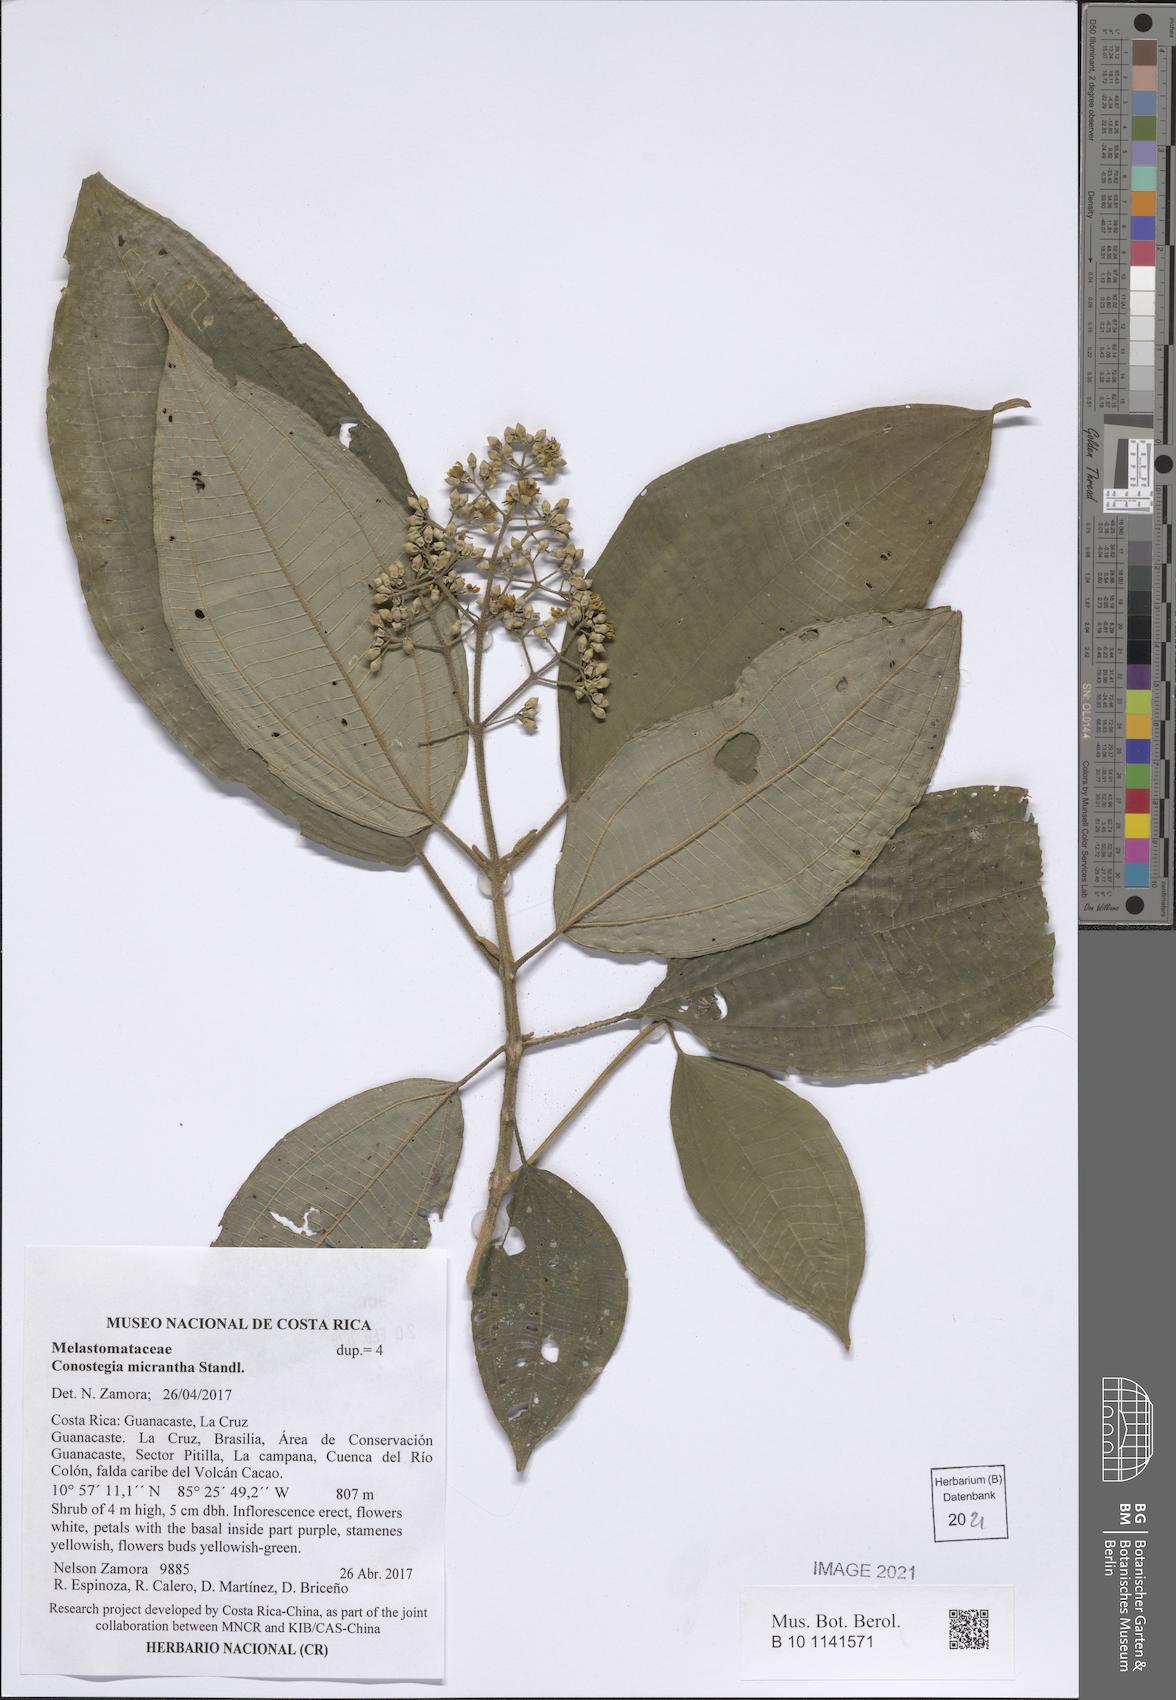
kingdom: Plantae
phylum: Tracheophyta
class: Magnoliopsida
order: Myrtales
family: Melastomataceae
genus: Miconia
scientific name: Miconia conomicrantha
